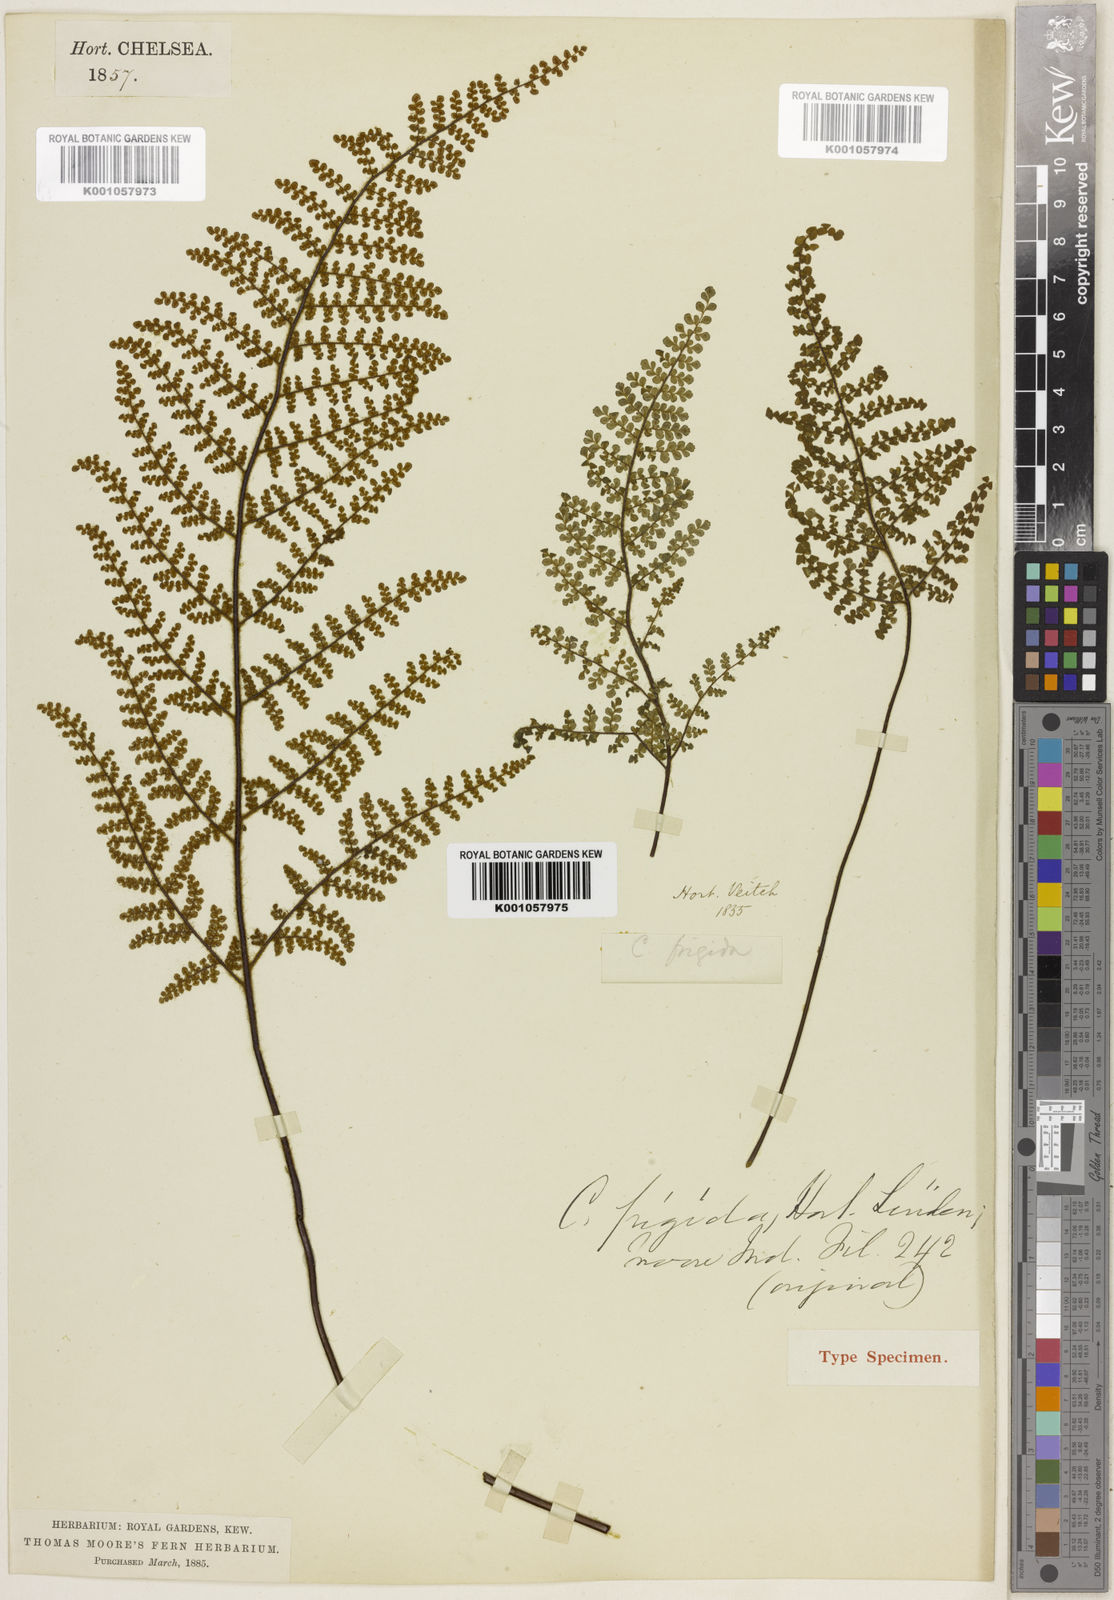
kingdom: Plantae
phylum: Tracheophyta
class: Polypodiopsida
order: Polypodiales
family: Pteridaceae
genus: Myriopteris
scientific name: Myriopteris lendigera
